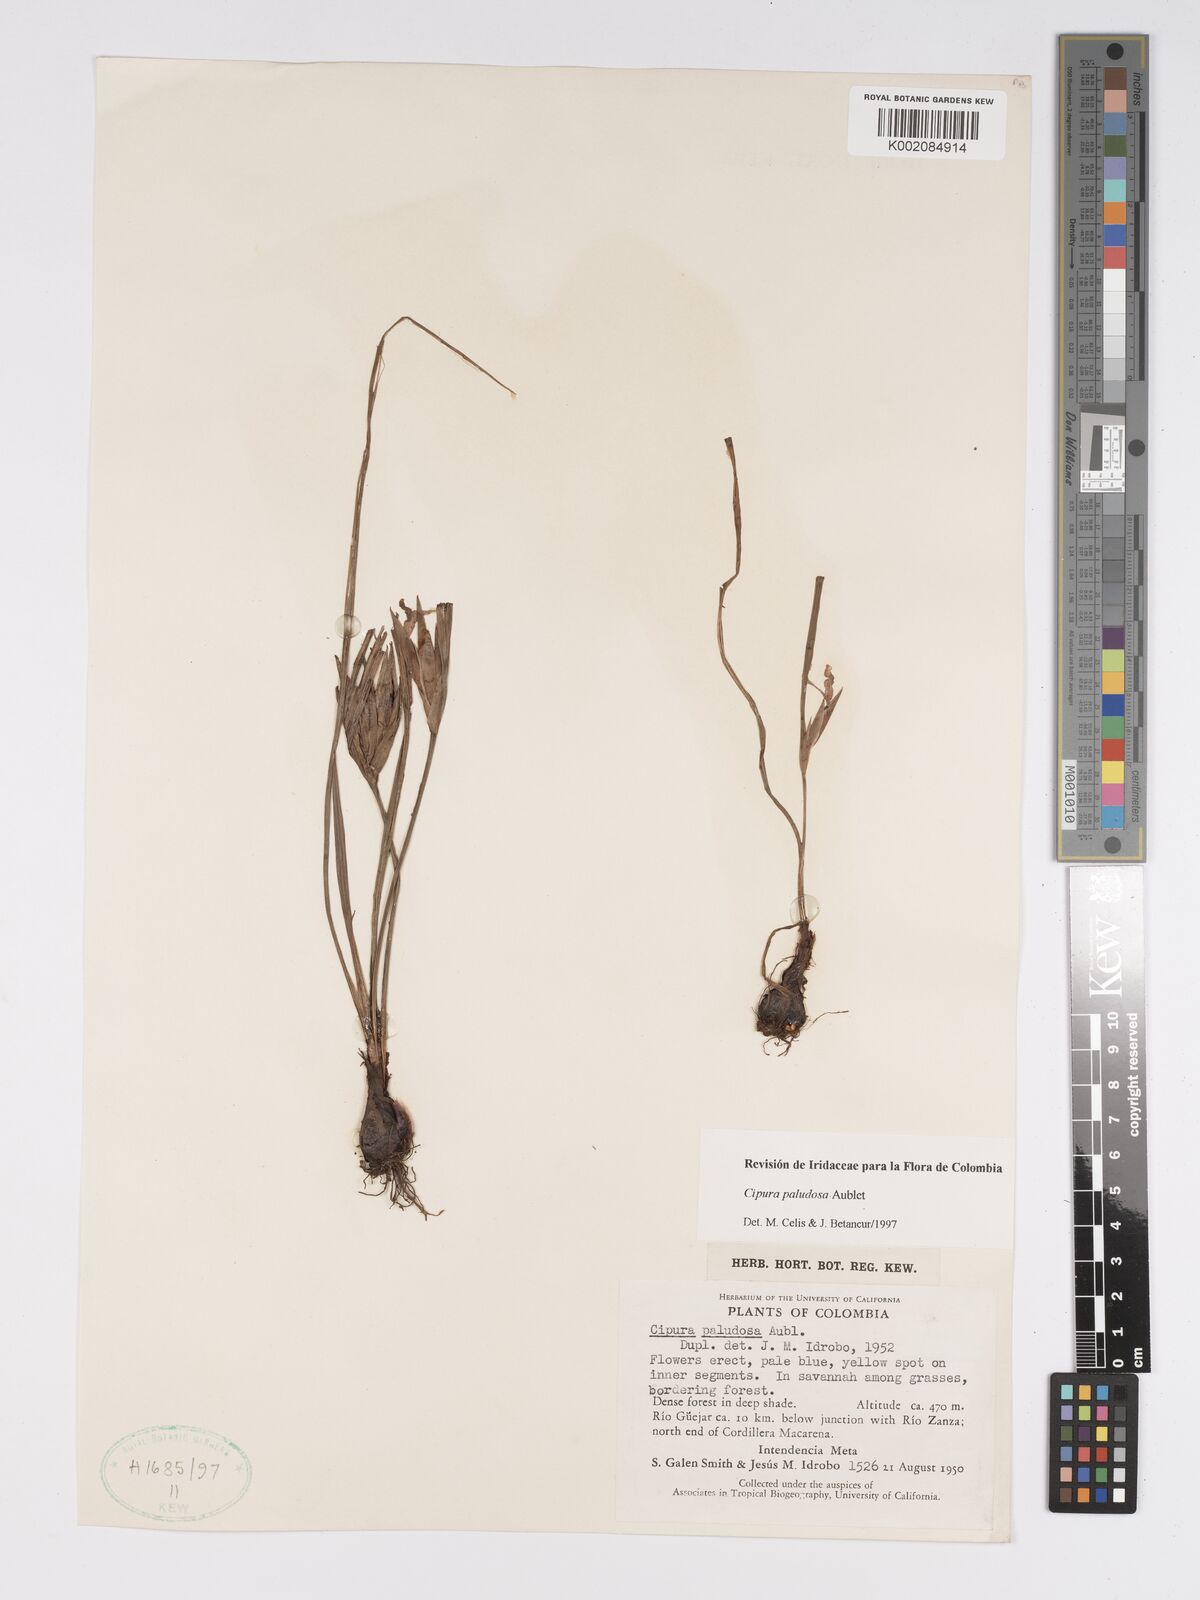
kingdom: Plantae
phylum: Tracheophyta
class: Liliopsida
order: Asparagales
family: Iridaceae
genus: Cipura
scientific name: Cipura paludosa
